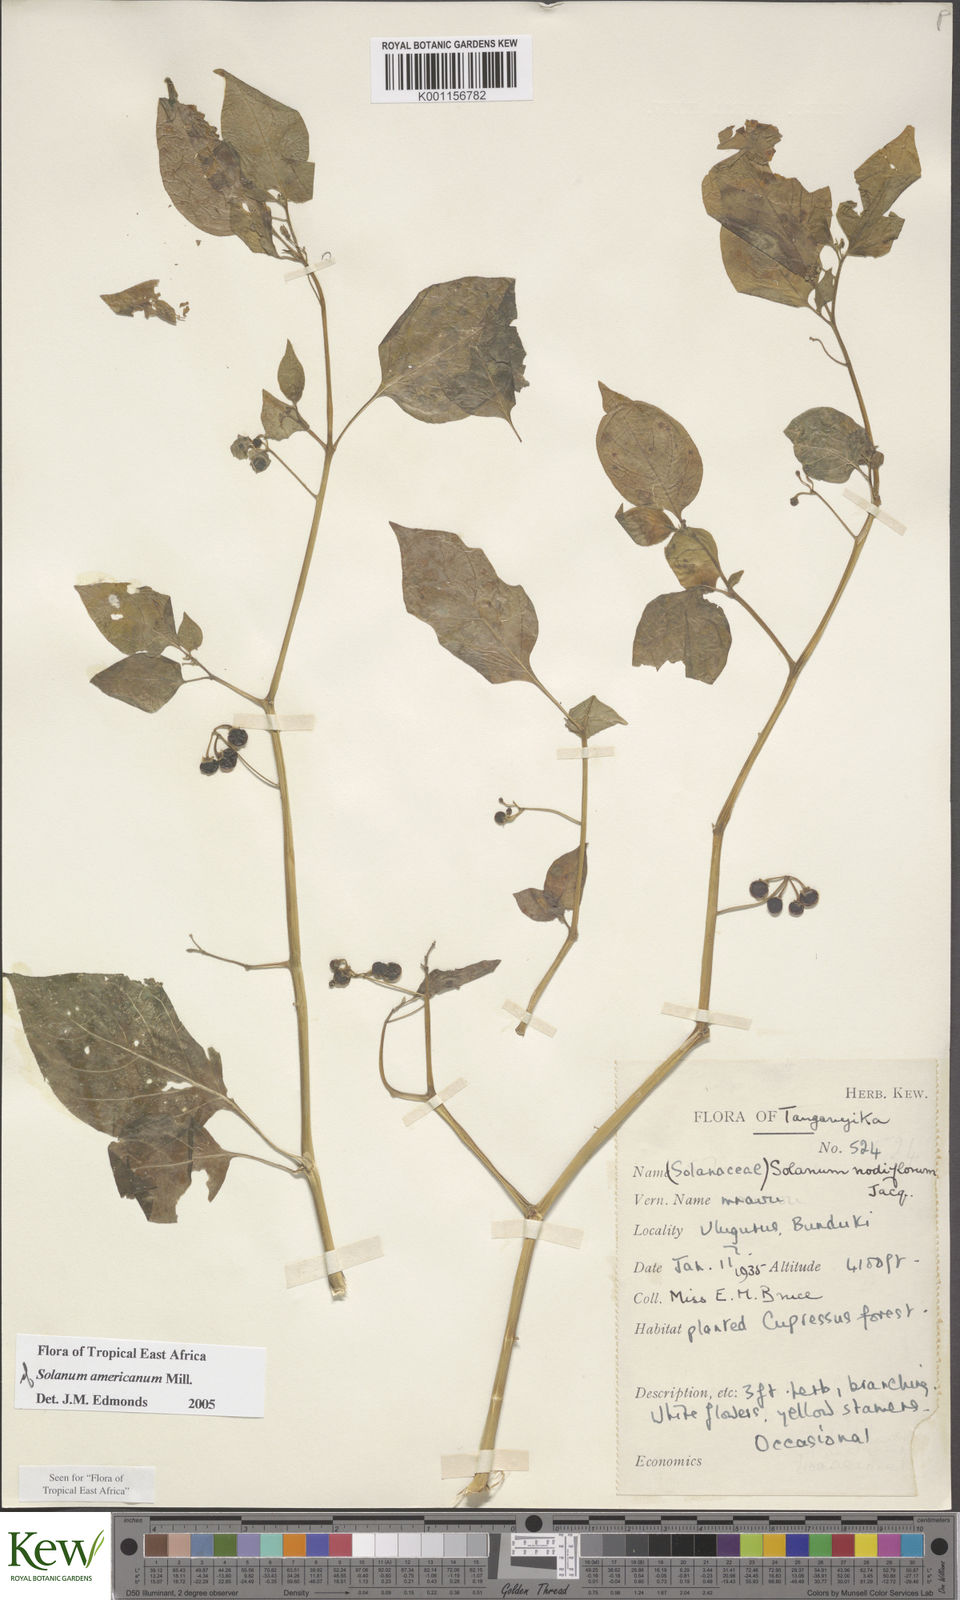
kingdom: Plantae
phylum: Tracheophyta
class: Magnoliopsida
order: Solanales
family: Solanaceae
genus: Solanum
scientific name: Solanum americanum
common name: American black nightshade
